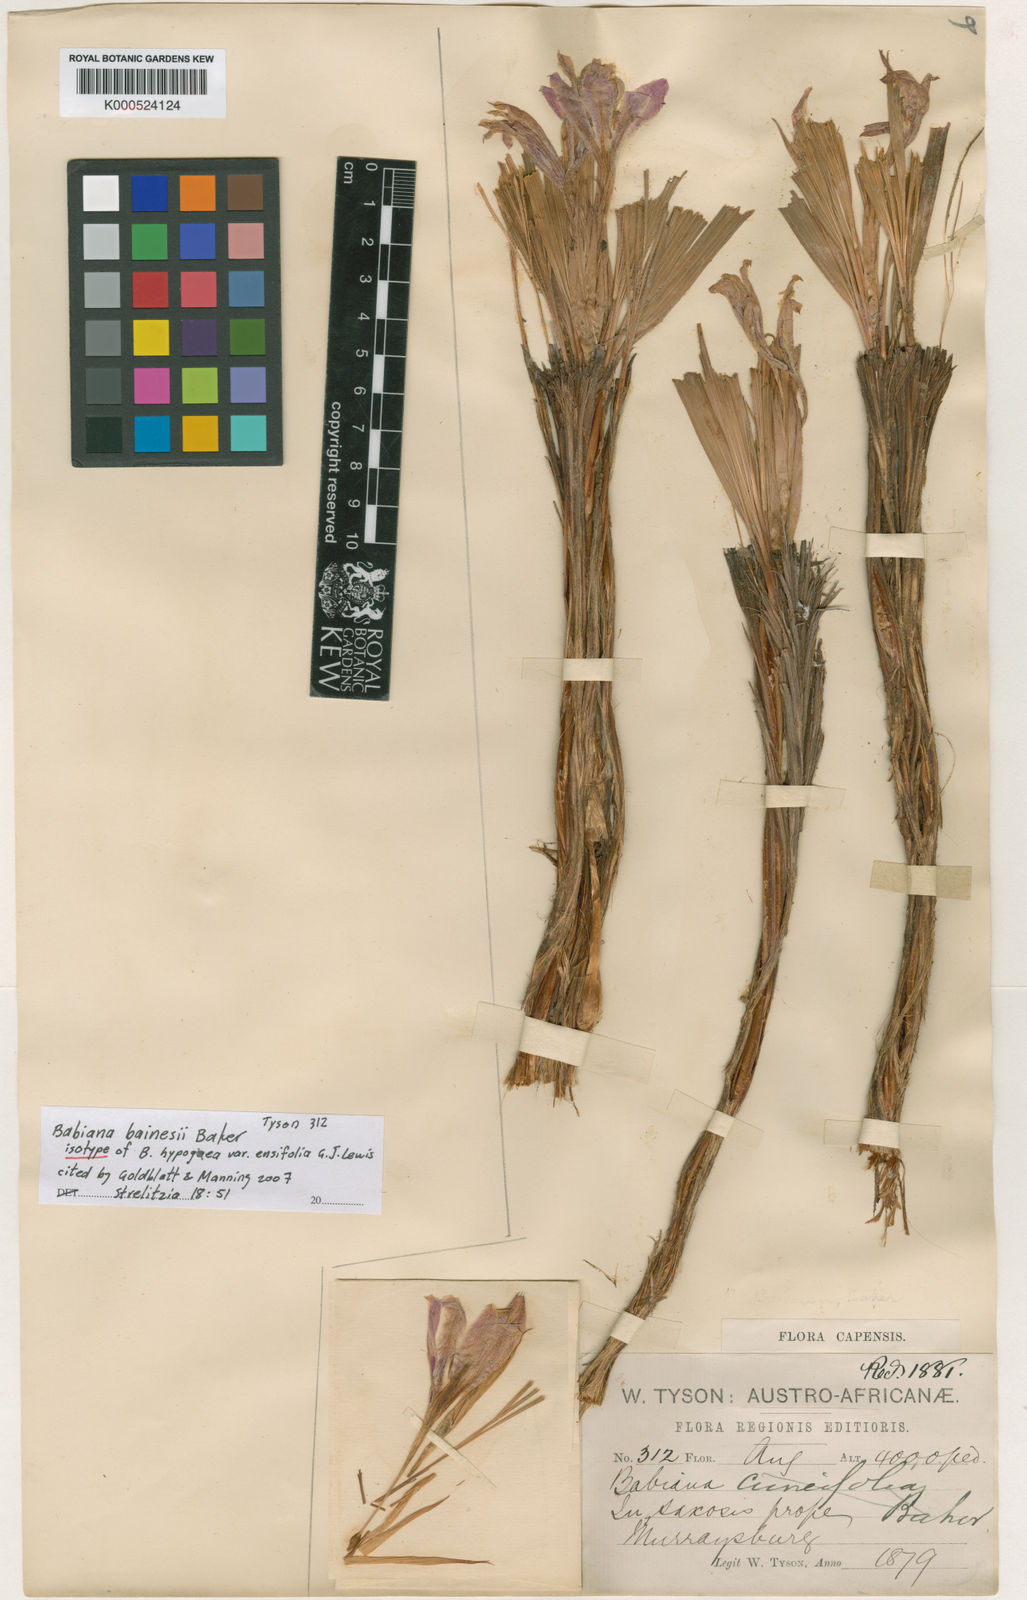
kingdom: Plantae
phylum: Tracheophyta
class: Liliopsida
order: Asparagales
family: Iridaceae
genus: Babiana
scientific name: Babiana bainesii
